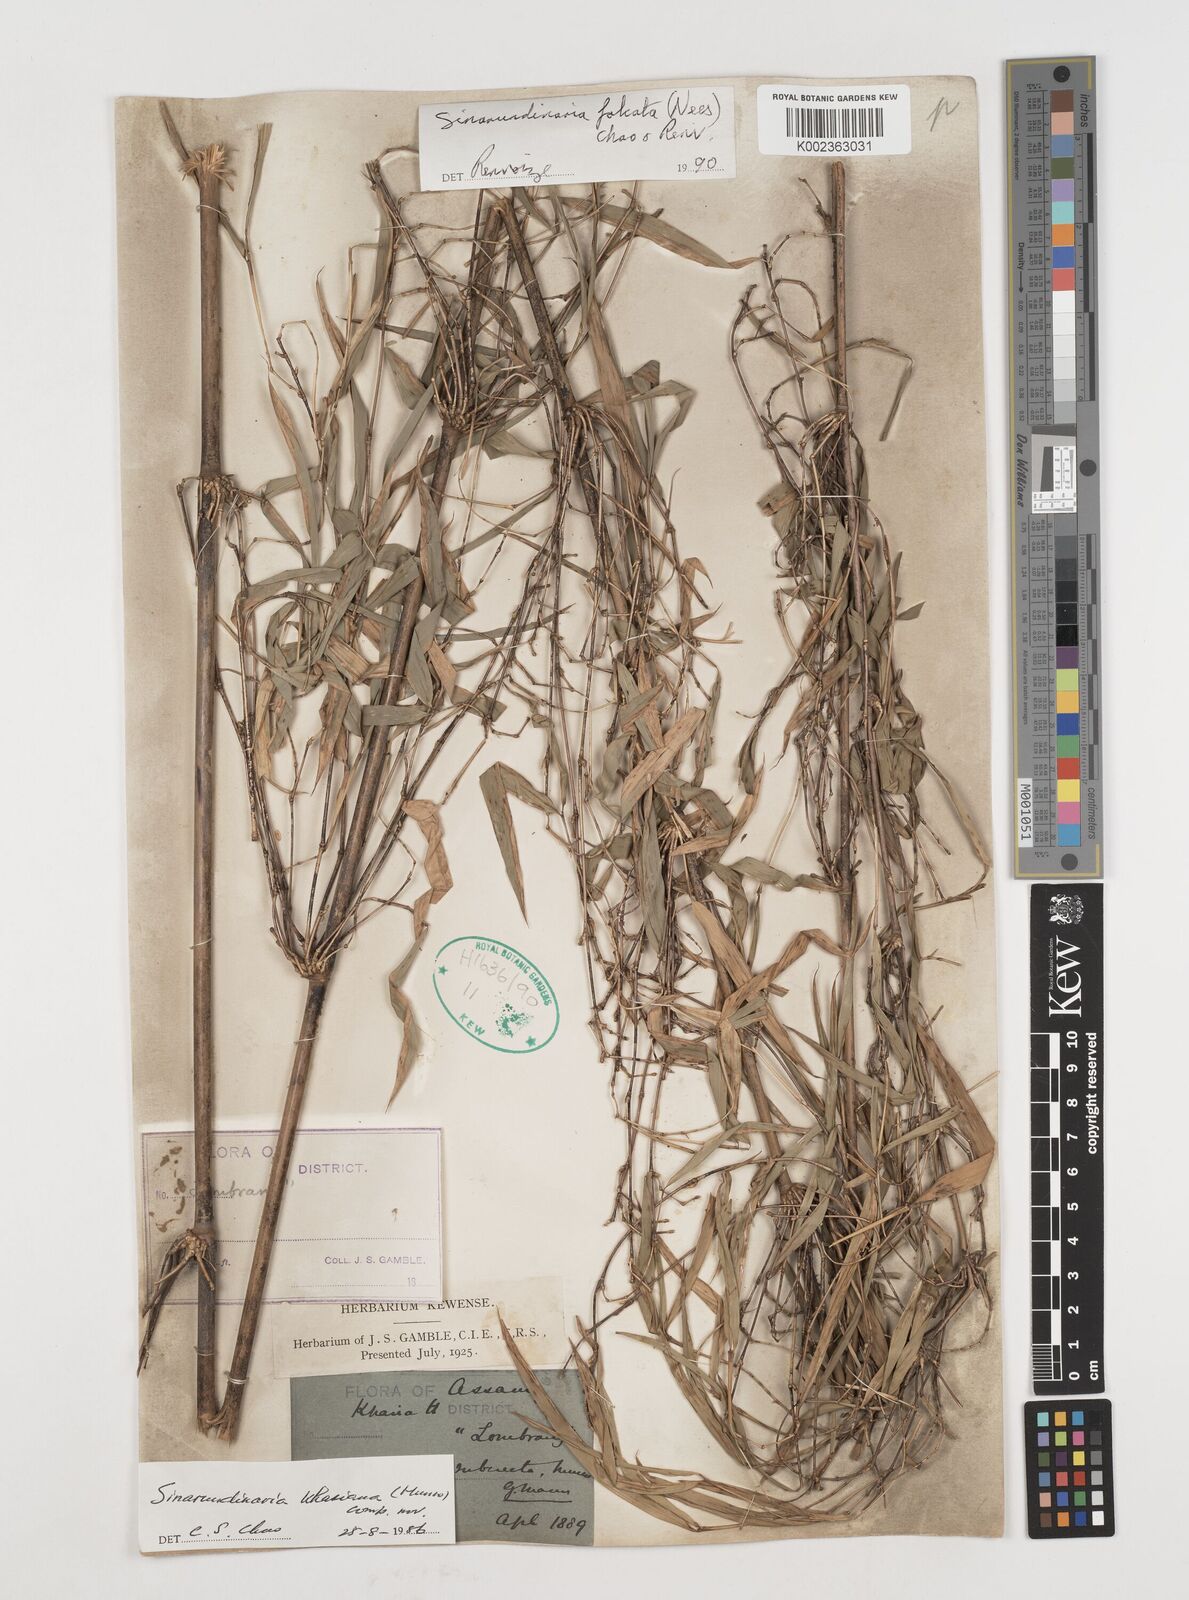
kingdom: Plantae
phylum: Tracheophyta
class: Liliopsida
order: Poales
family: Poaceae
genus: Drepanostachyum
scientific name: Drepanostachyum khasianum
